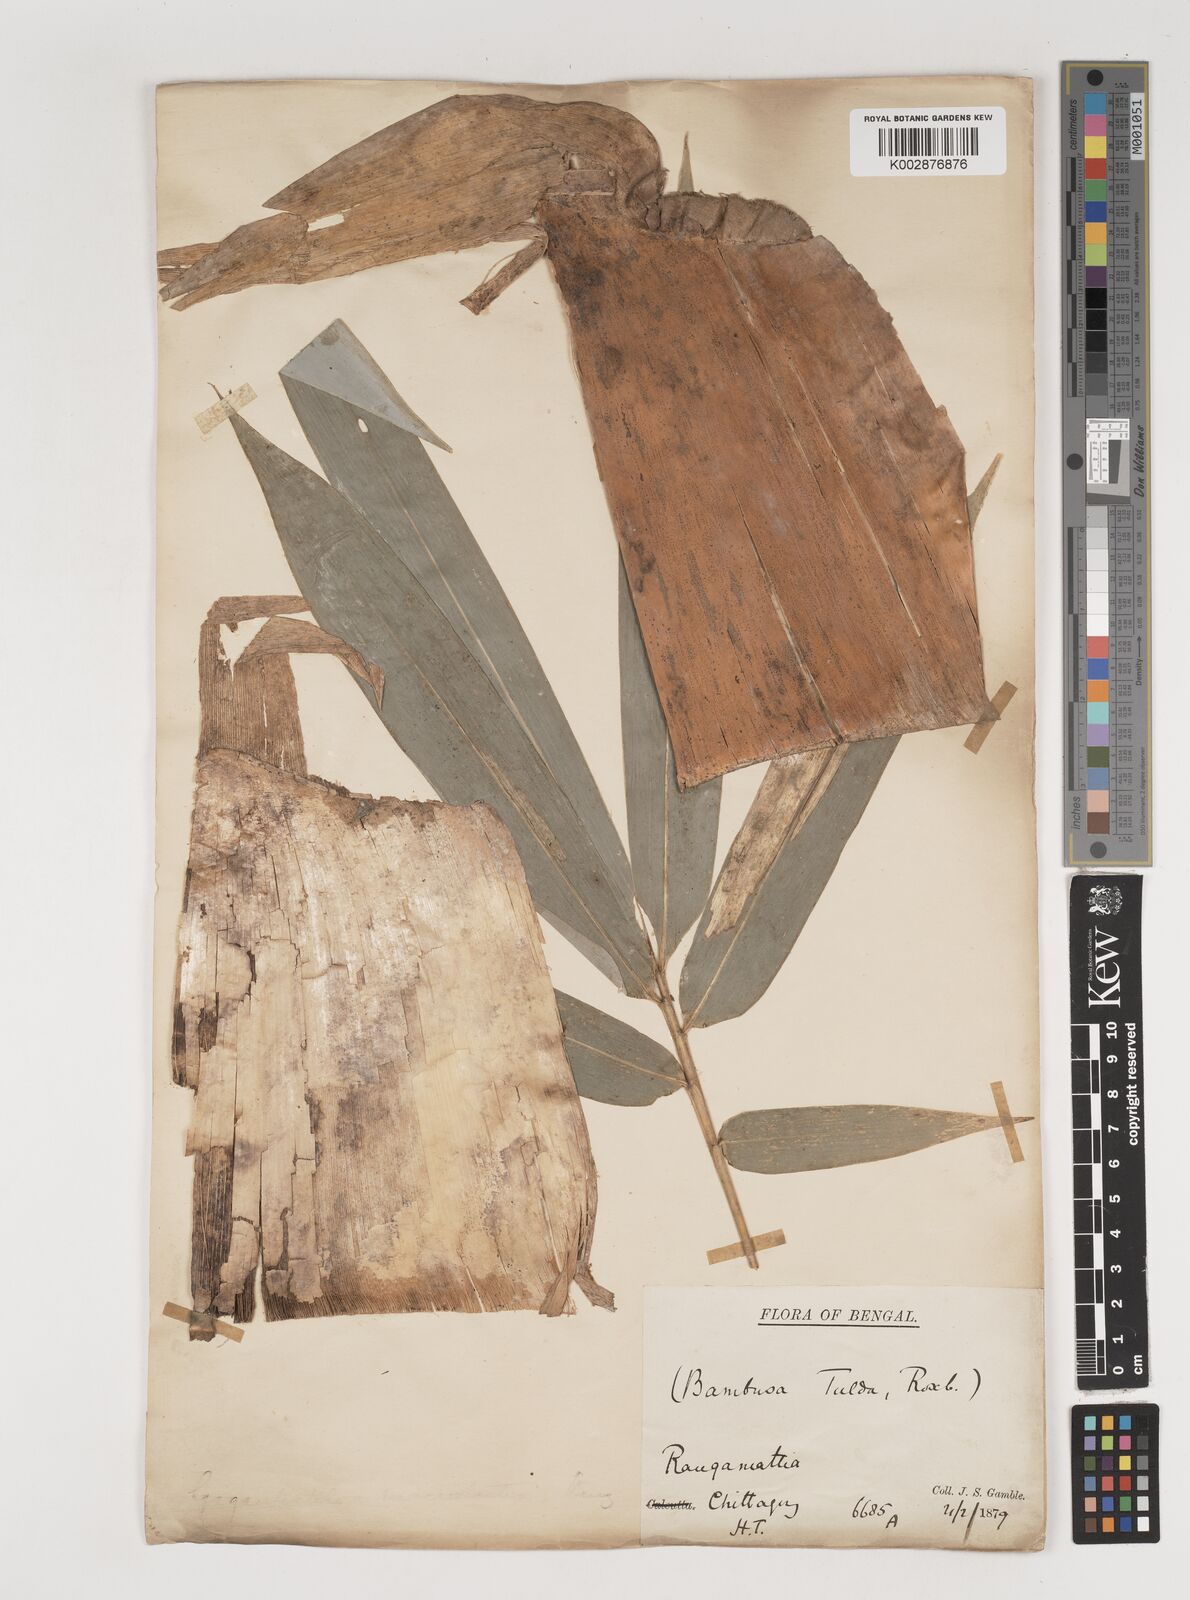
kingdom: Plantae
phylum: Tracheophyta
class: Liliopsida
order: Poales
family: Poaceae
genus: Bambusa
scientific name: Bambusa tuldoides
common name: Verdant bamboo
